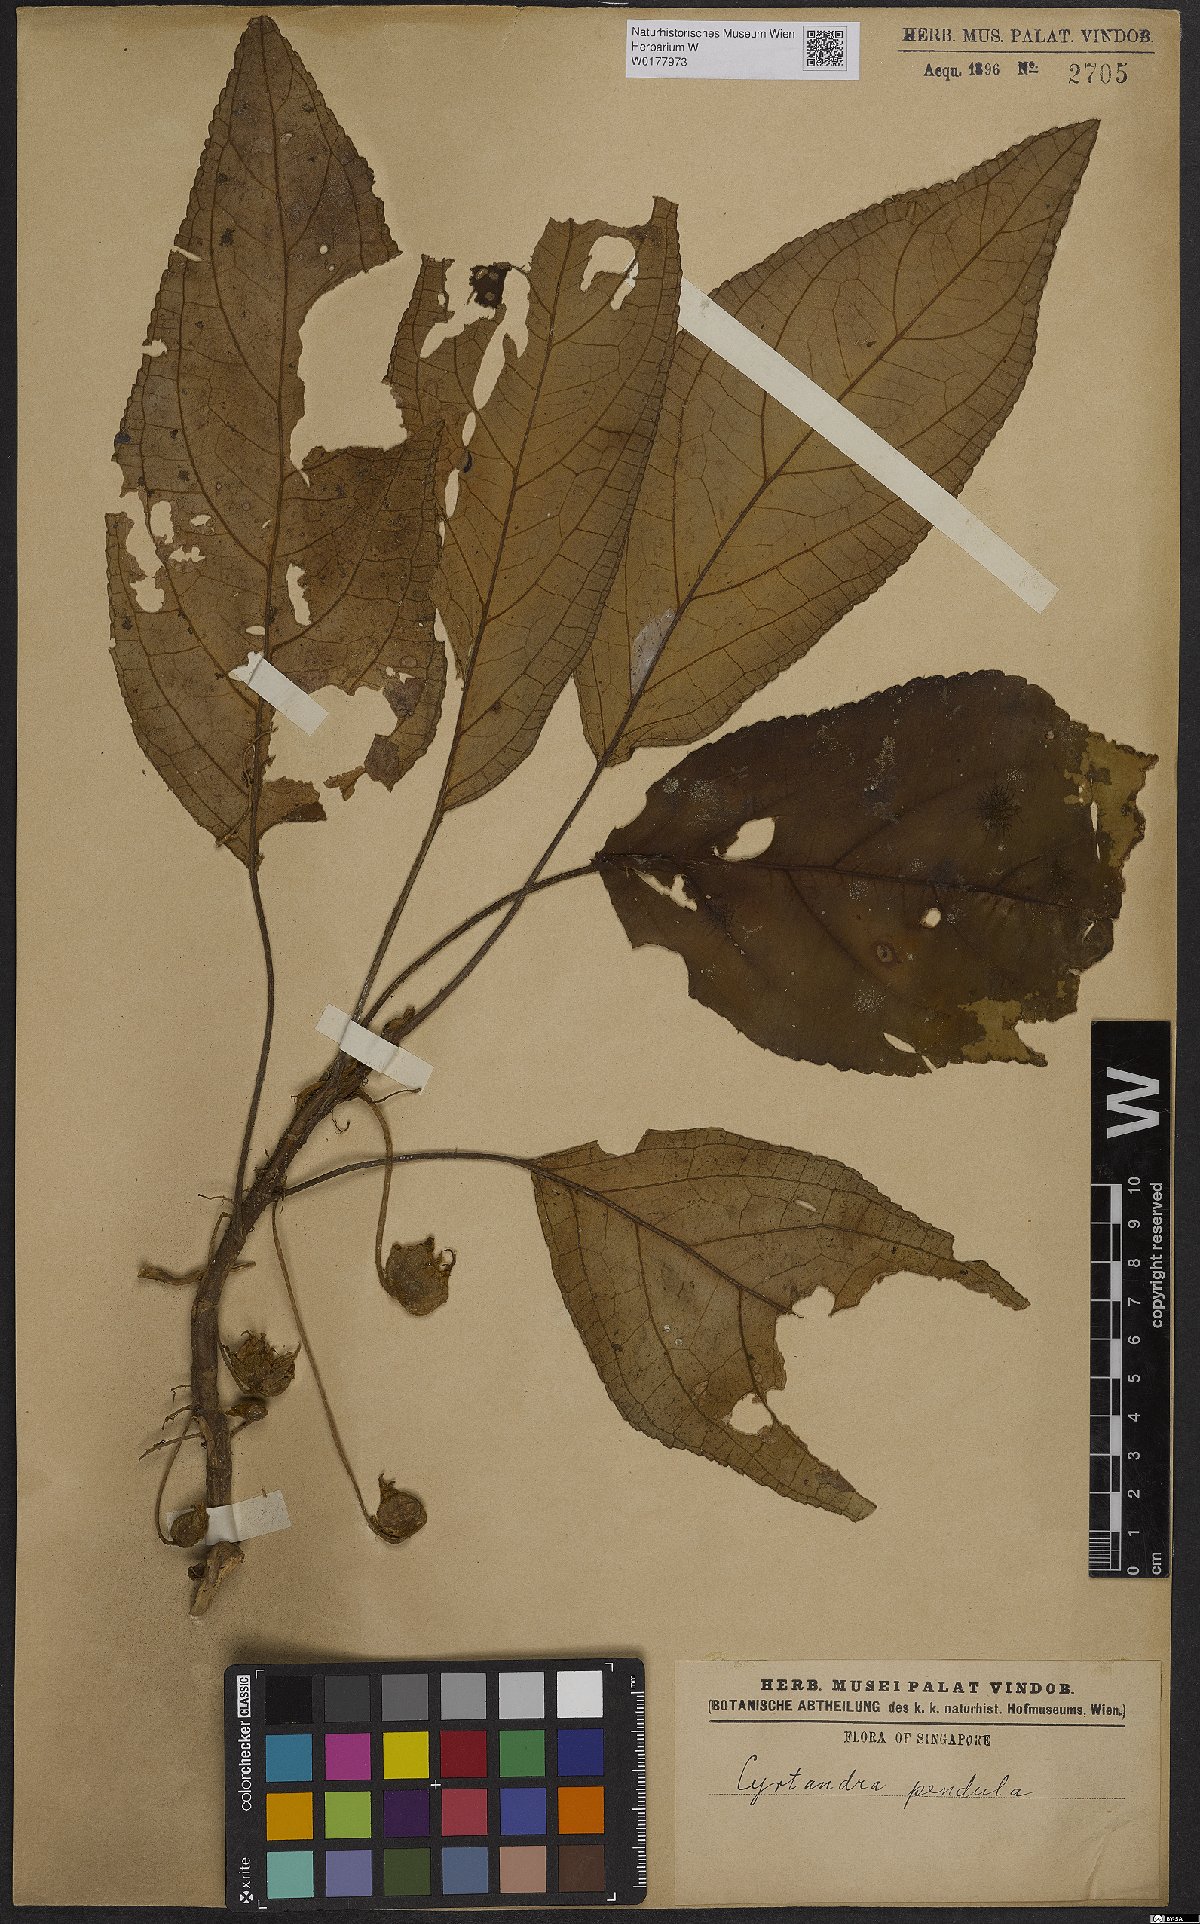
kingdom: Plantae
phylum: Tracheophyta
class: Magnoliopsida
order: Lamiales
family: Gesneriaceae
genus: Cyrtandra
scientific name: Cyrtandra pendula
